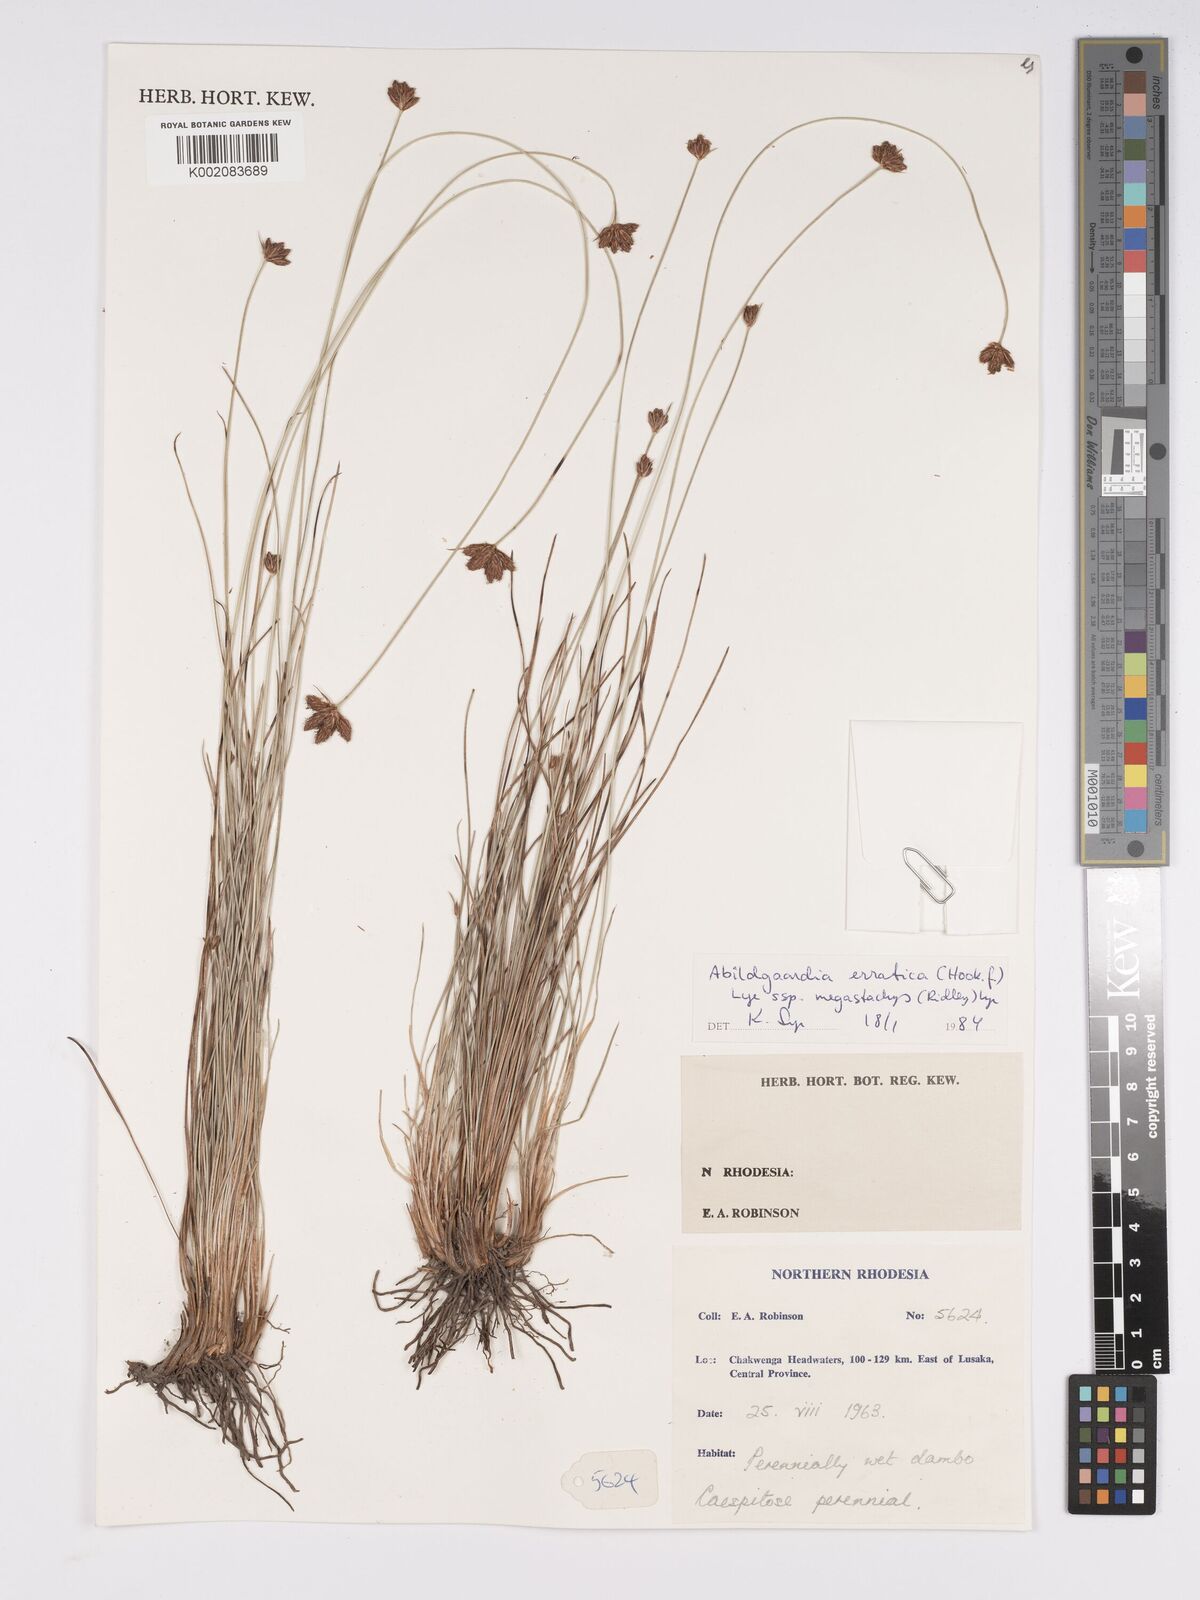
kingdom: Plantae
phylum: Tracheophyta
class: Liliopsida
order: Poales
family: Cyperaceae
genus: Bulbostylis
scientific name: Bulbostylis schoenoides
